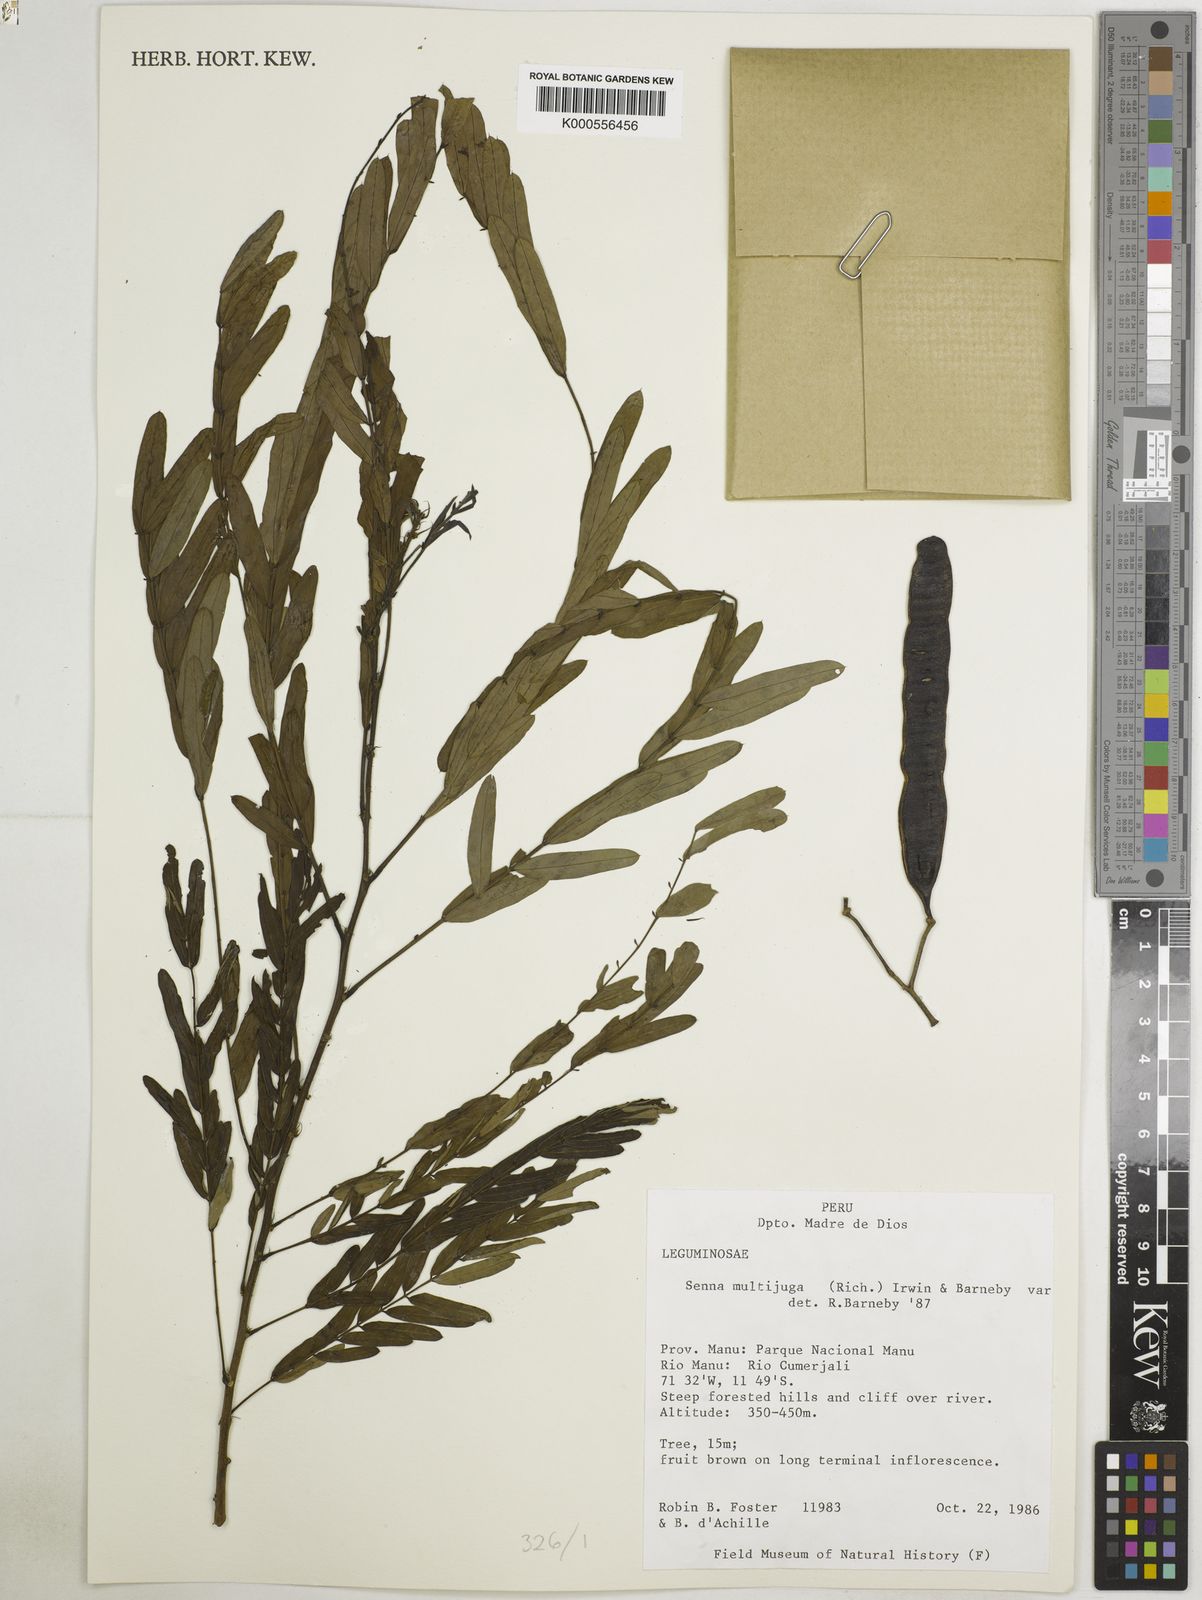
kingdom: Plantae
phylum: Tracheophyta
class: Magnoliopsida
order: Fabales
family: Fabaceae
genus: Senna
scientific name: Senna multijuga
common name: False sicklepod
